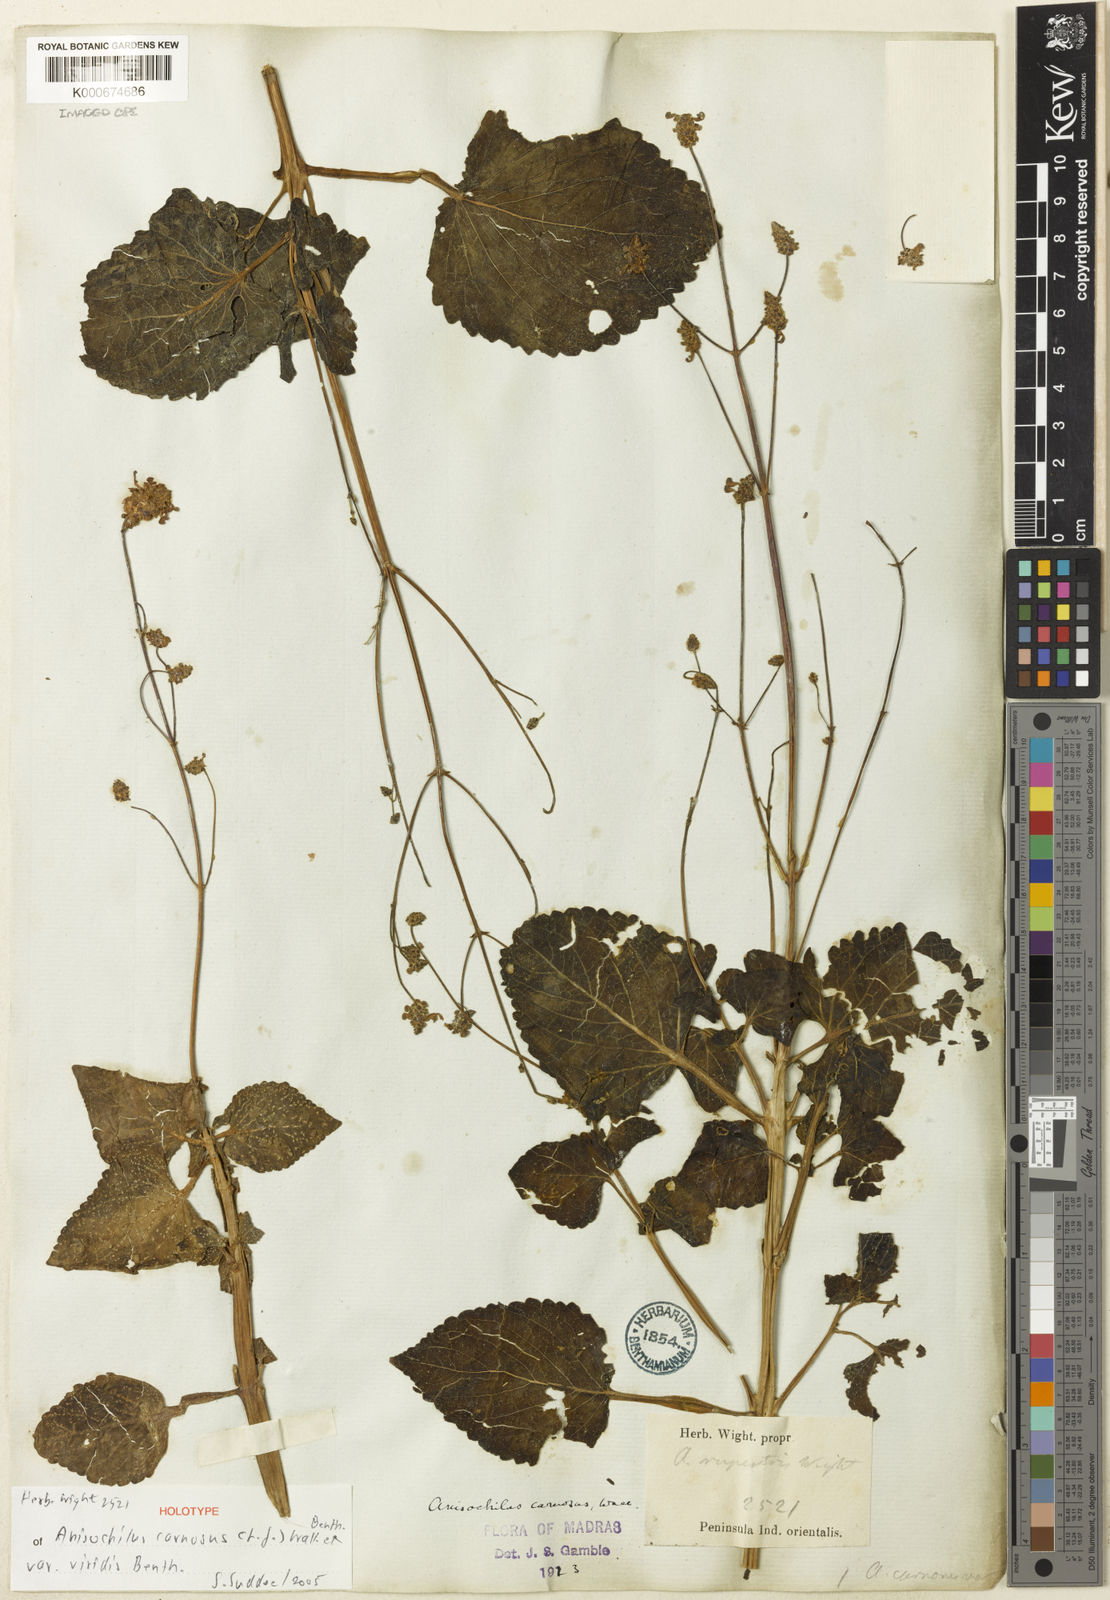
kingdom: Plantae
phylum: Tracheophyta
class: Magnoliopsida
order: Lamiales
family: Lamiaceae
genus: Coleus
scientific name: Coleus strobilifer
